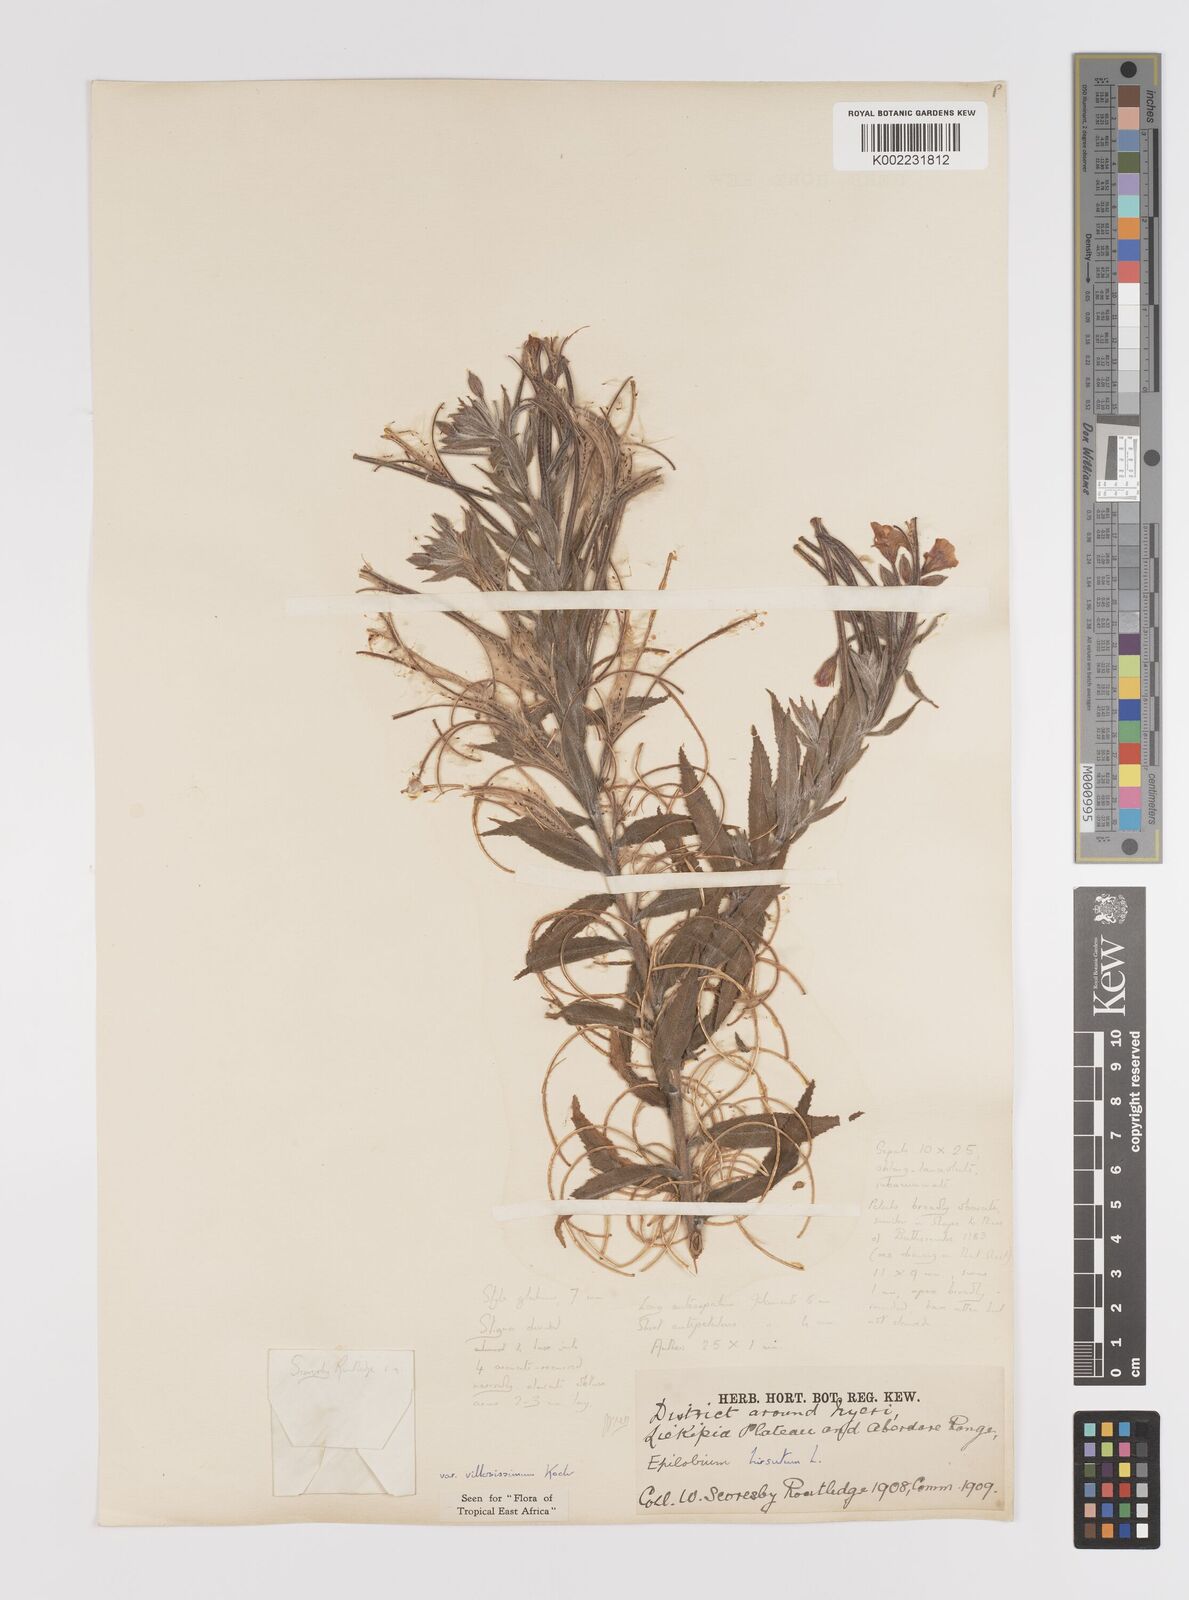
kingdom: Plantae
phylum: Tracheophyta
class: Magnoliopsida
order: Myrtales
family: Onagraceae
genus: Epilobium
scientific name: Epilobium hirsutum
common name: Great willowherb
